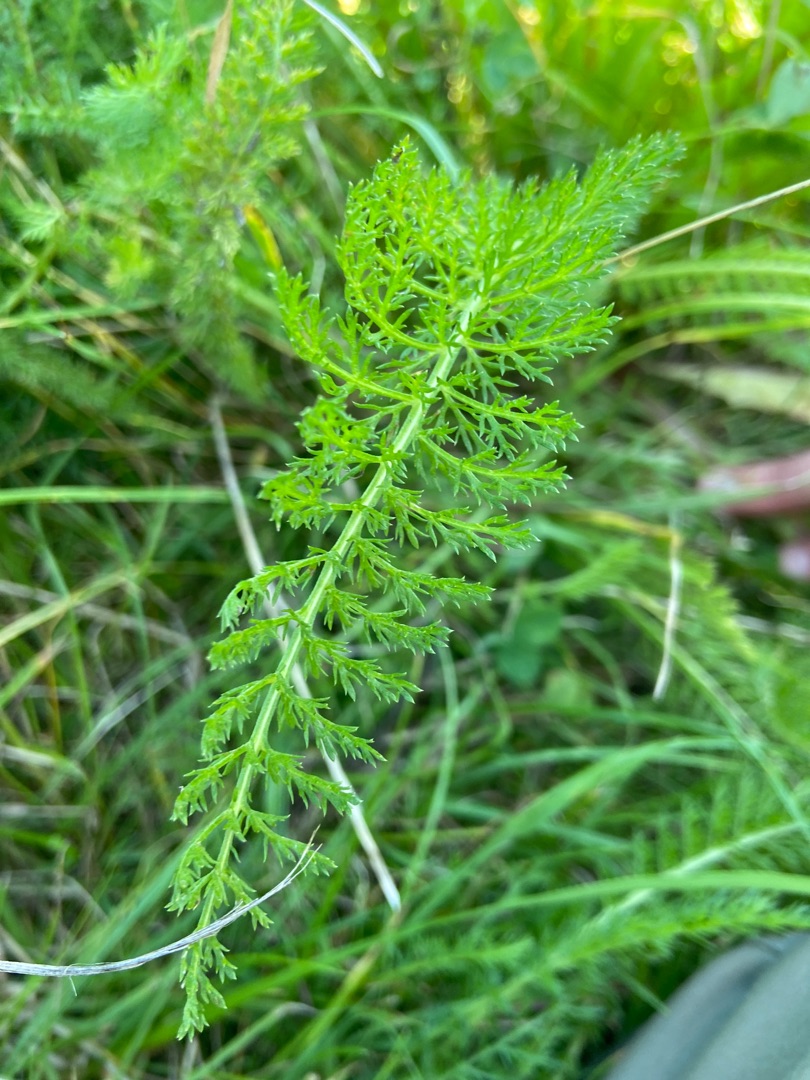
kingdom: Plantae
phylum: Tracheophyta
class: Magnoliopsida
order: Asterales
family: Asteraceae
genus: Achillea
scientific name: Achillea millefolium
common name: Almindelig røllike
